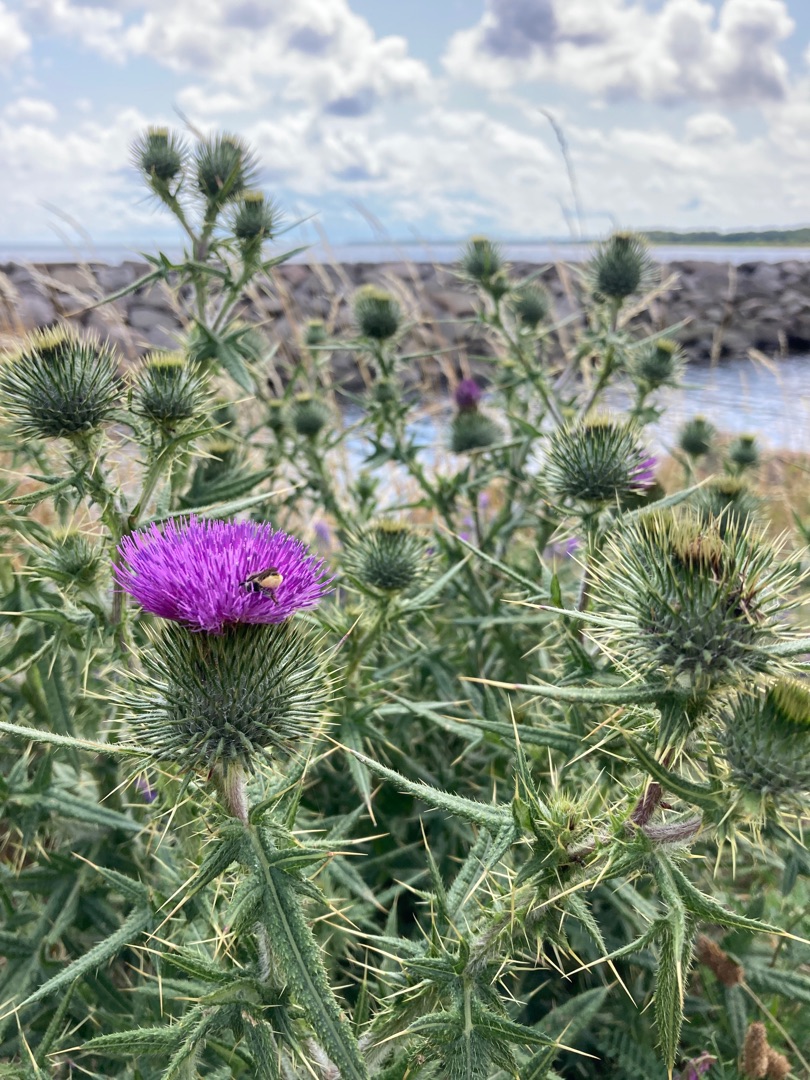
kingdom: Plantae
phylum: Tracheophyta
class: Magnoliopsida
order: Asterales
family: Asteraceae
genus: Cirsium
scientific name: Cirsium vulgare
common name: Horse-tidsel
